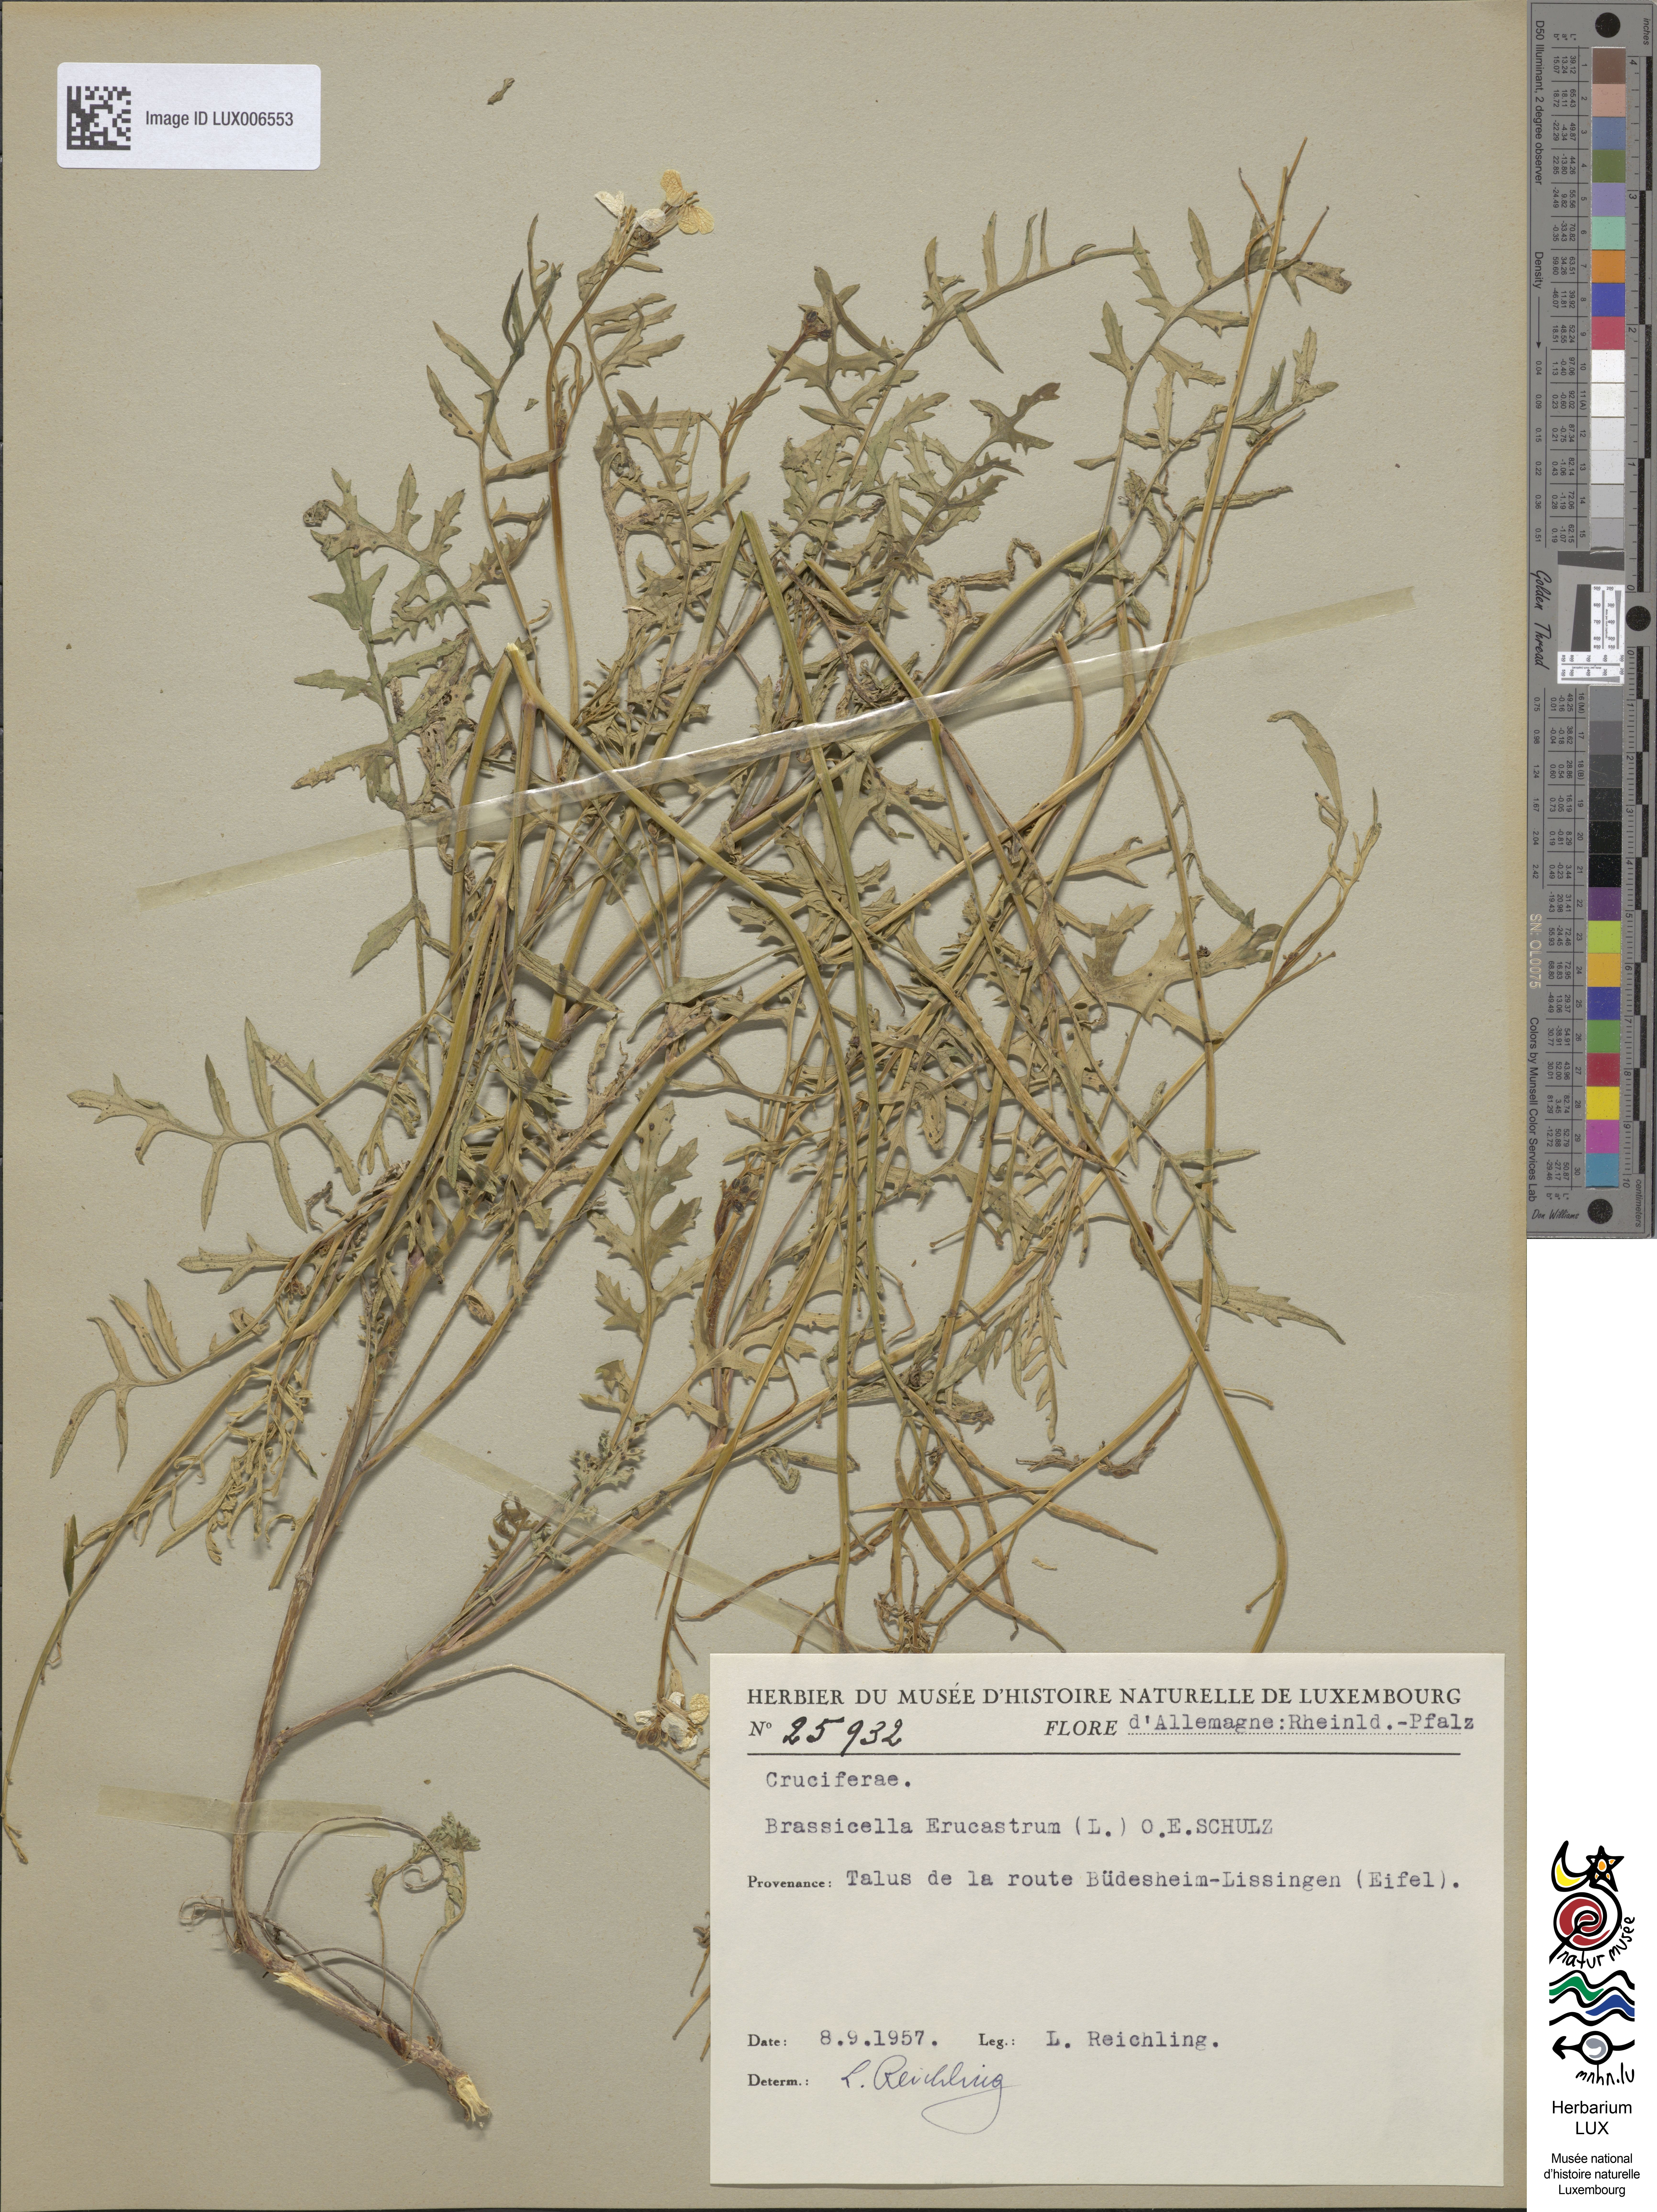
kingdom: Plantae
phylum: Tracheophyta
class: Magnoliopsida
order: Brassicales
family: Brassicaceae
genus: Erucastrum
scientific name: Erucastrum nasturtiifolium
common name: Watercress-leaf rocket
